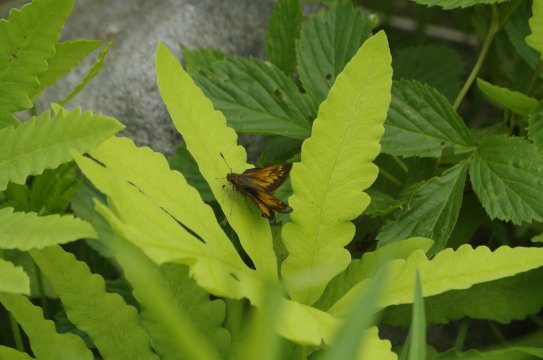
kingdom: Animalia
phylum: Arthropoda
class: Insecta
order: Lepidoptera
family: Hesperiidae
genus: Lon
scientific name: Lon hobomok
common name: Hobomok Skipper
